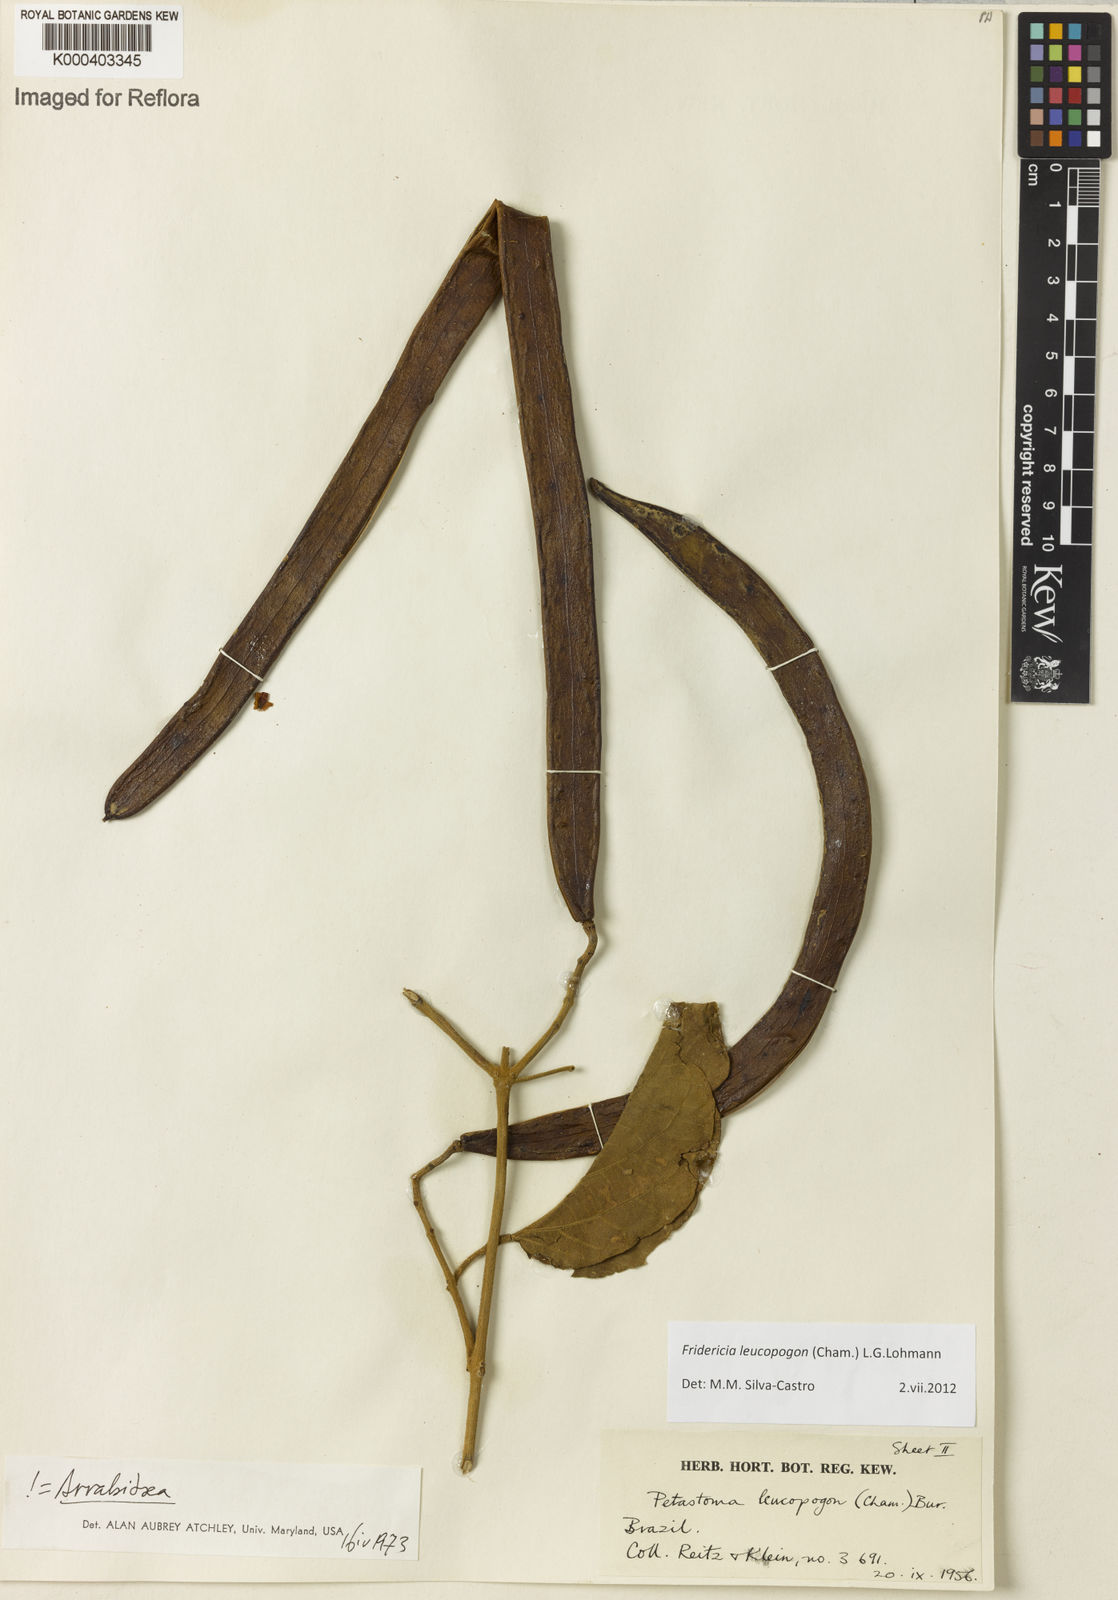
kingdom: Plantae
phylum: Tracheophyta
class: Magnoliopsida
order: Lamiales
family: Bignoniaceae
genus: Fridericia
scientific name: Fridericia leucopogon
